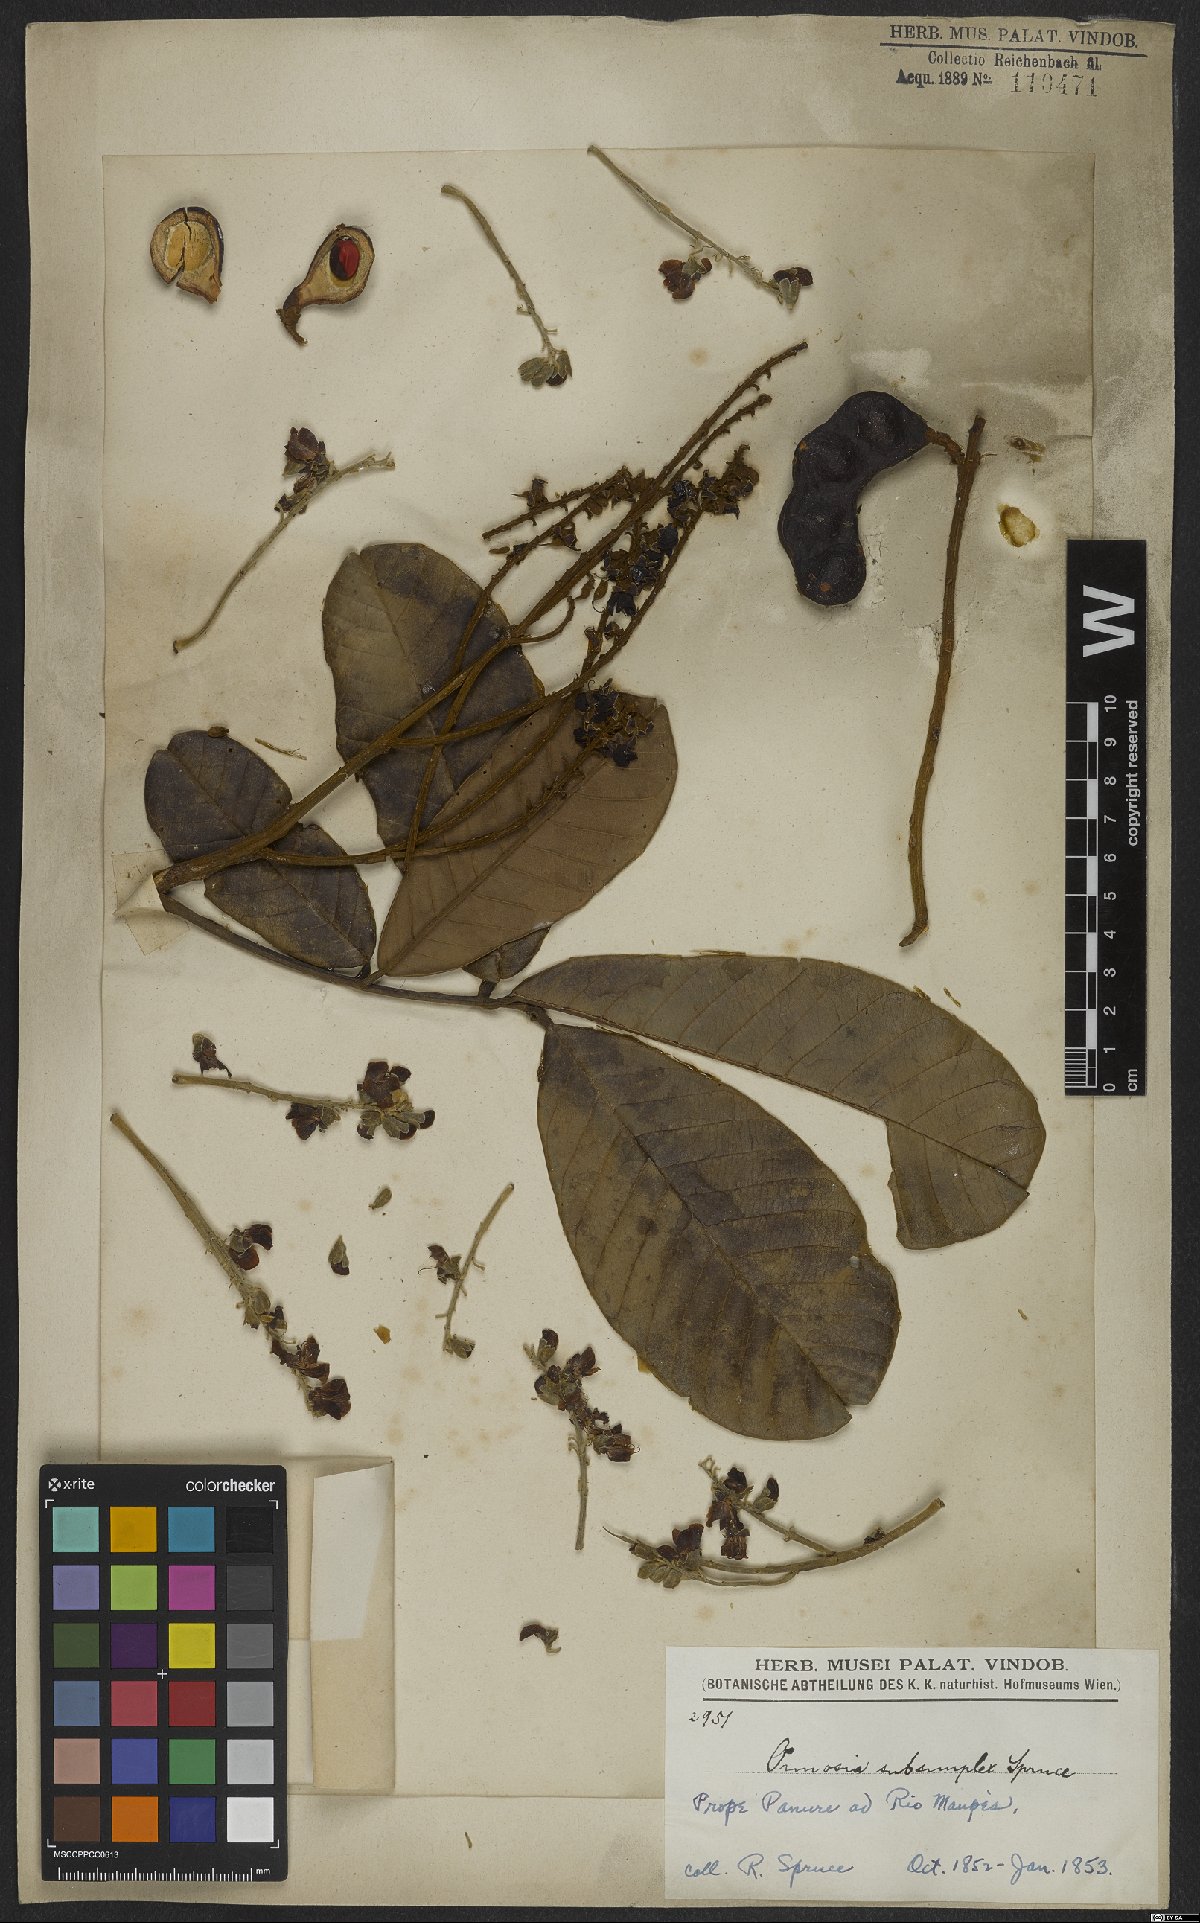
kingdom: Plantae
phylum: Tracheophyta
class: Magnoliopsida
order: Fabales
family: Fabaceae
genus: Ormosia
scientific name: Ormosia subsimplex
